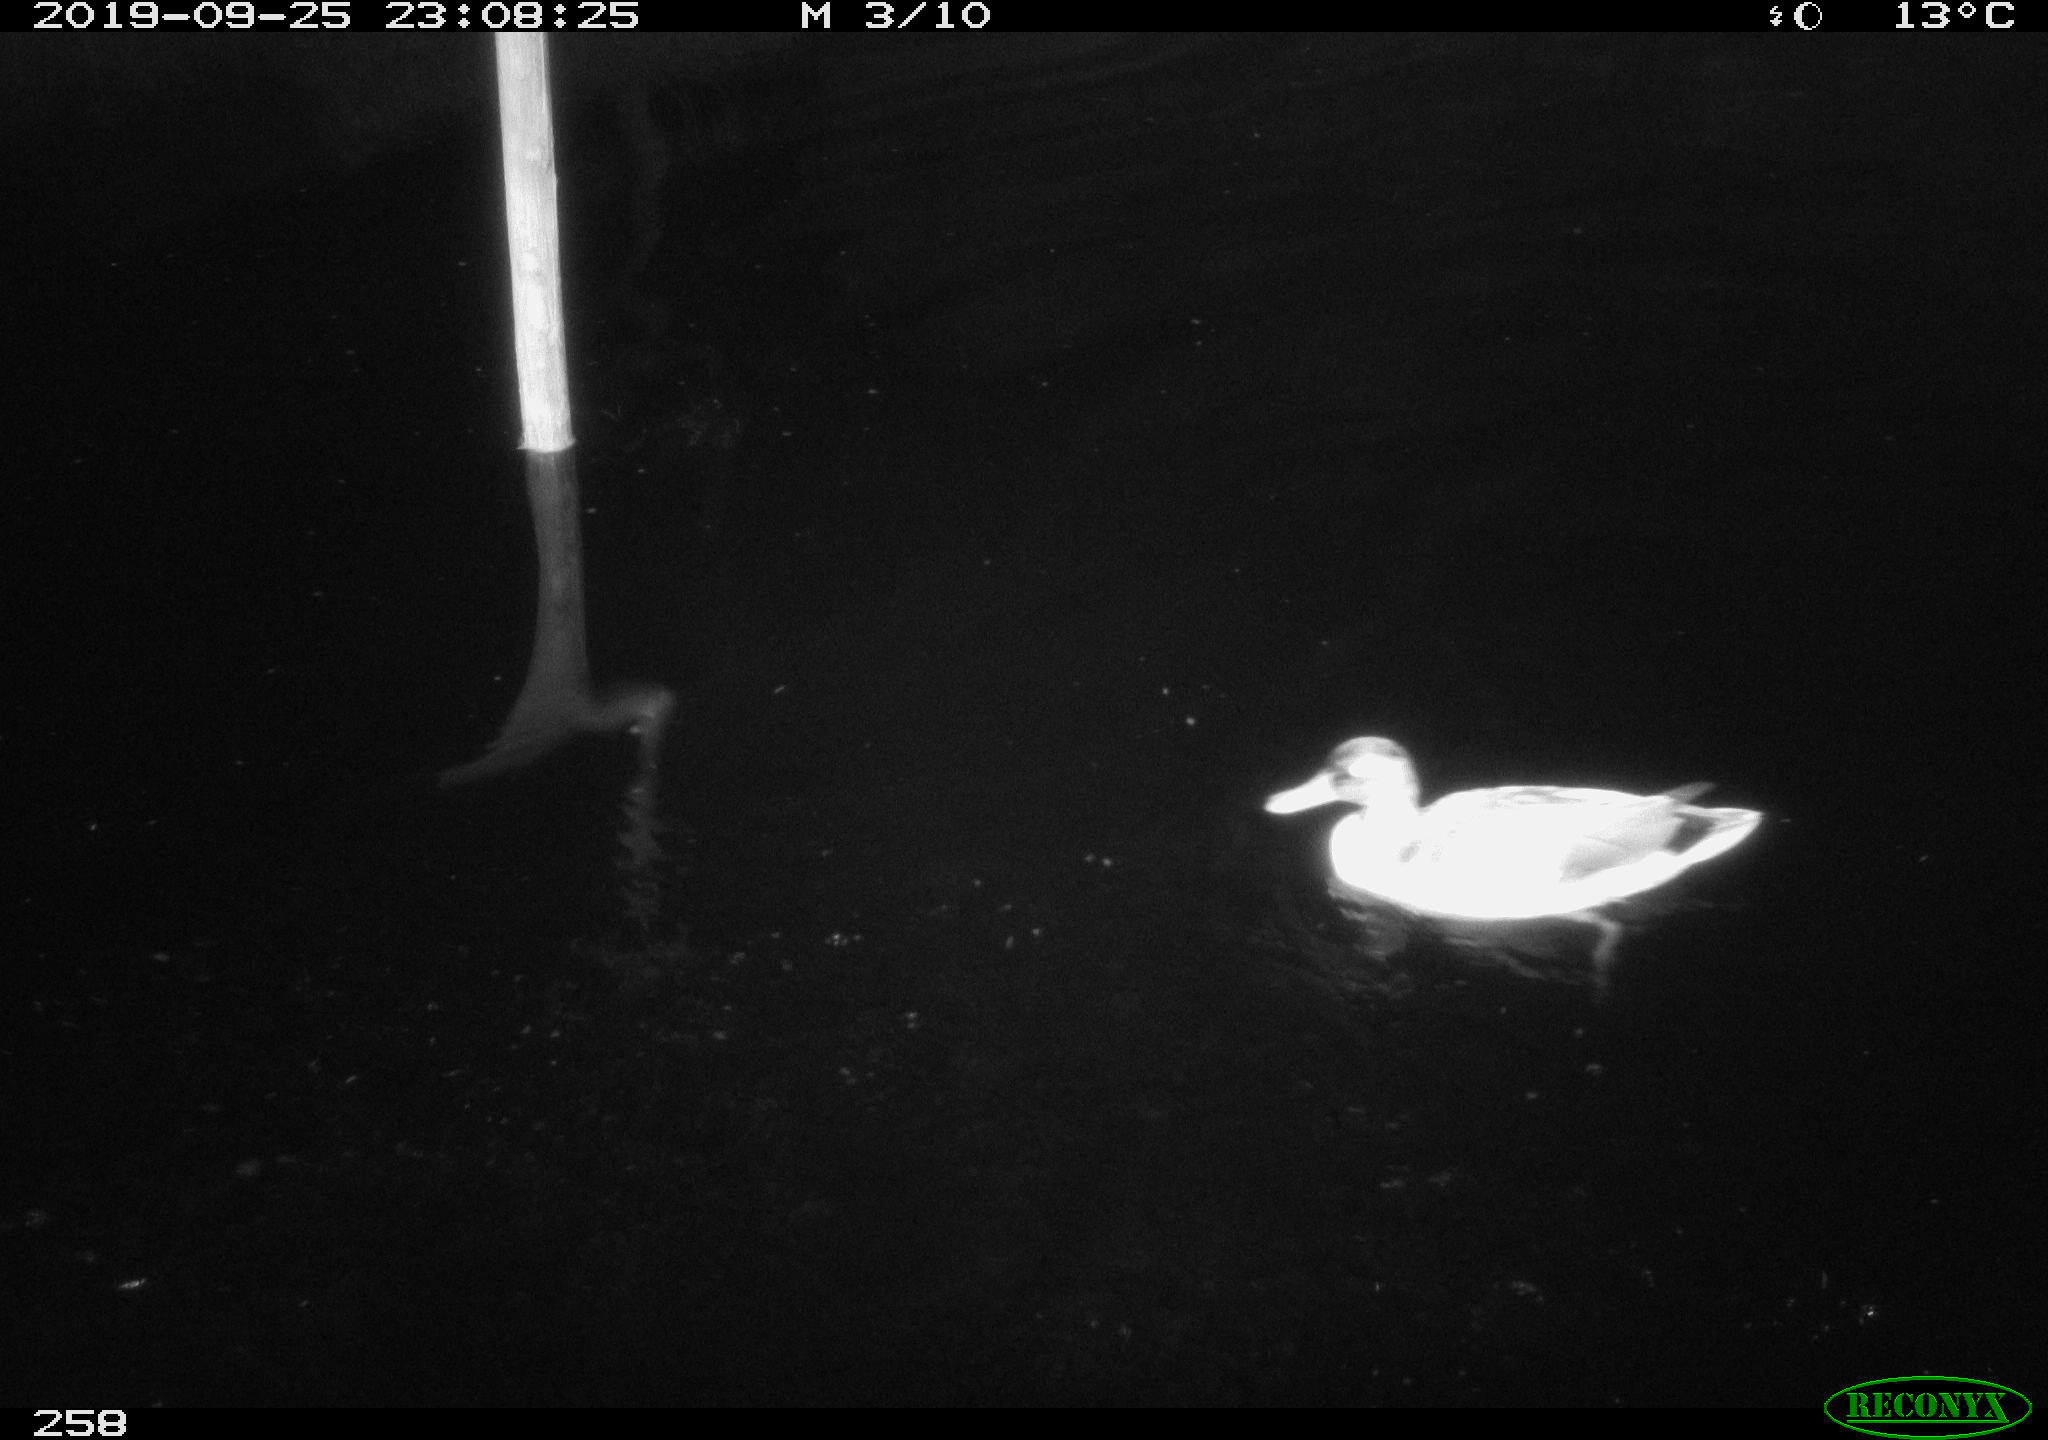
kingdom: Animalia
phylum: Chordata
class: Aves
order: Anseriformes
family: Anatidae
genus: Anas
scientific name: Anas platyrhynchos
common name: Mallard
